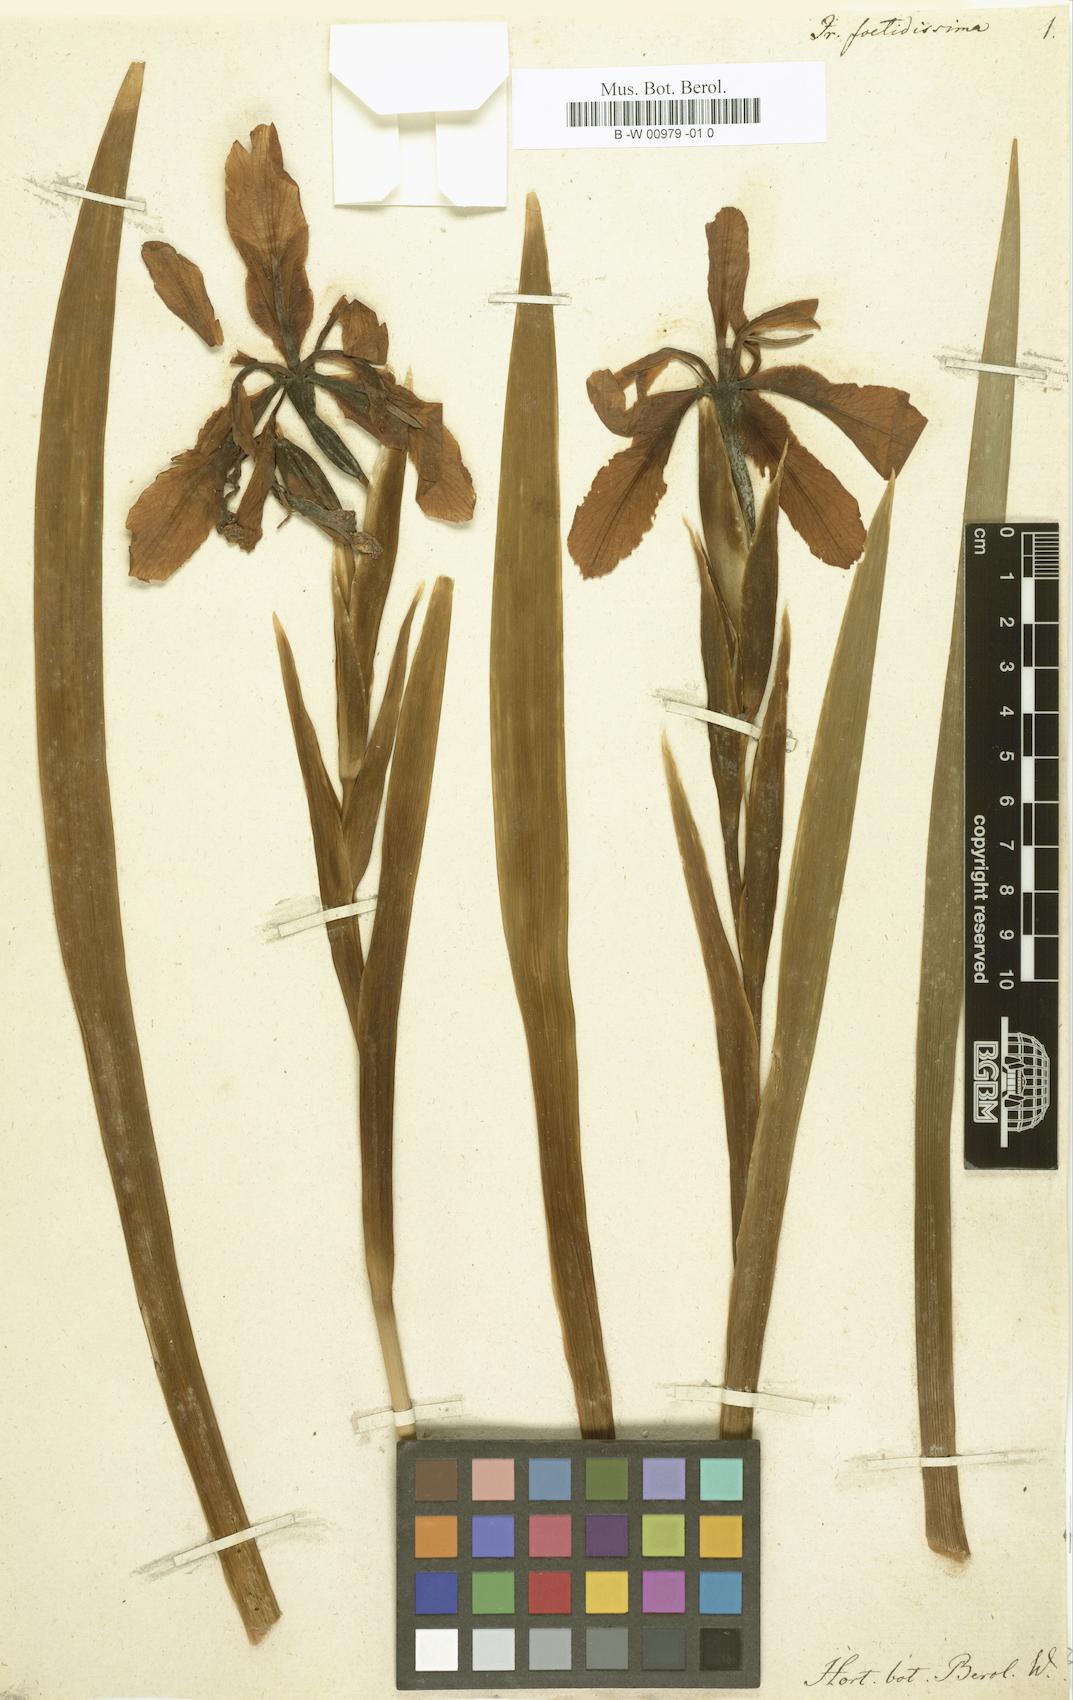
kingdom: Plantae
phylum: Tracheophyta
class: Liliopsida
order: Asparagales
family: Iridaceae
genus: Iris
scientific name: Iris foetidissima
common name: Stinking iris
